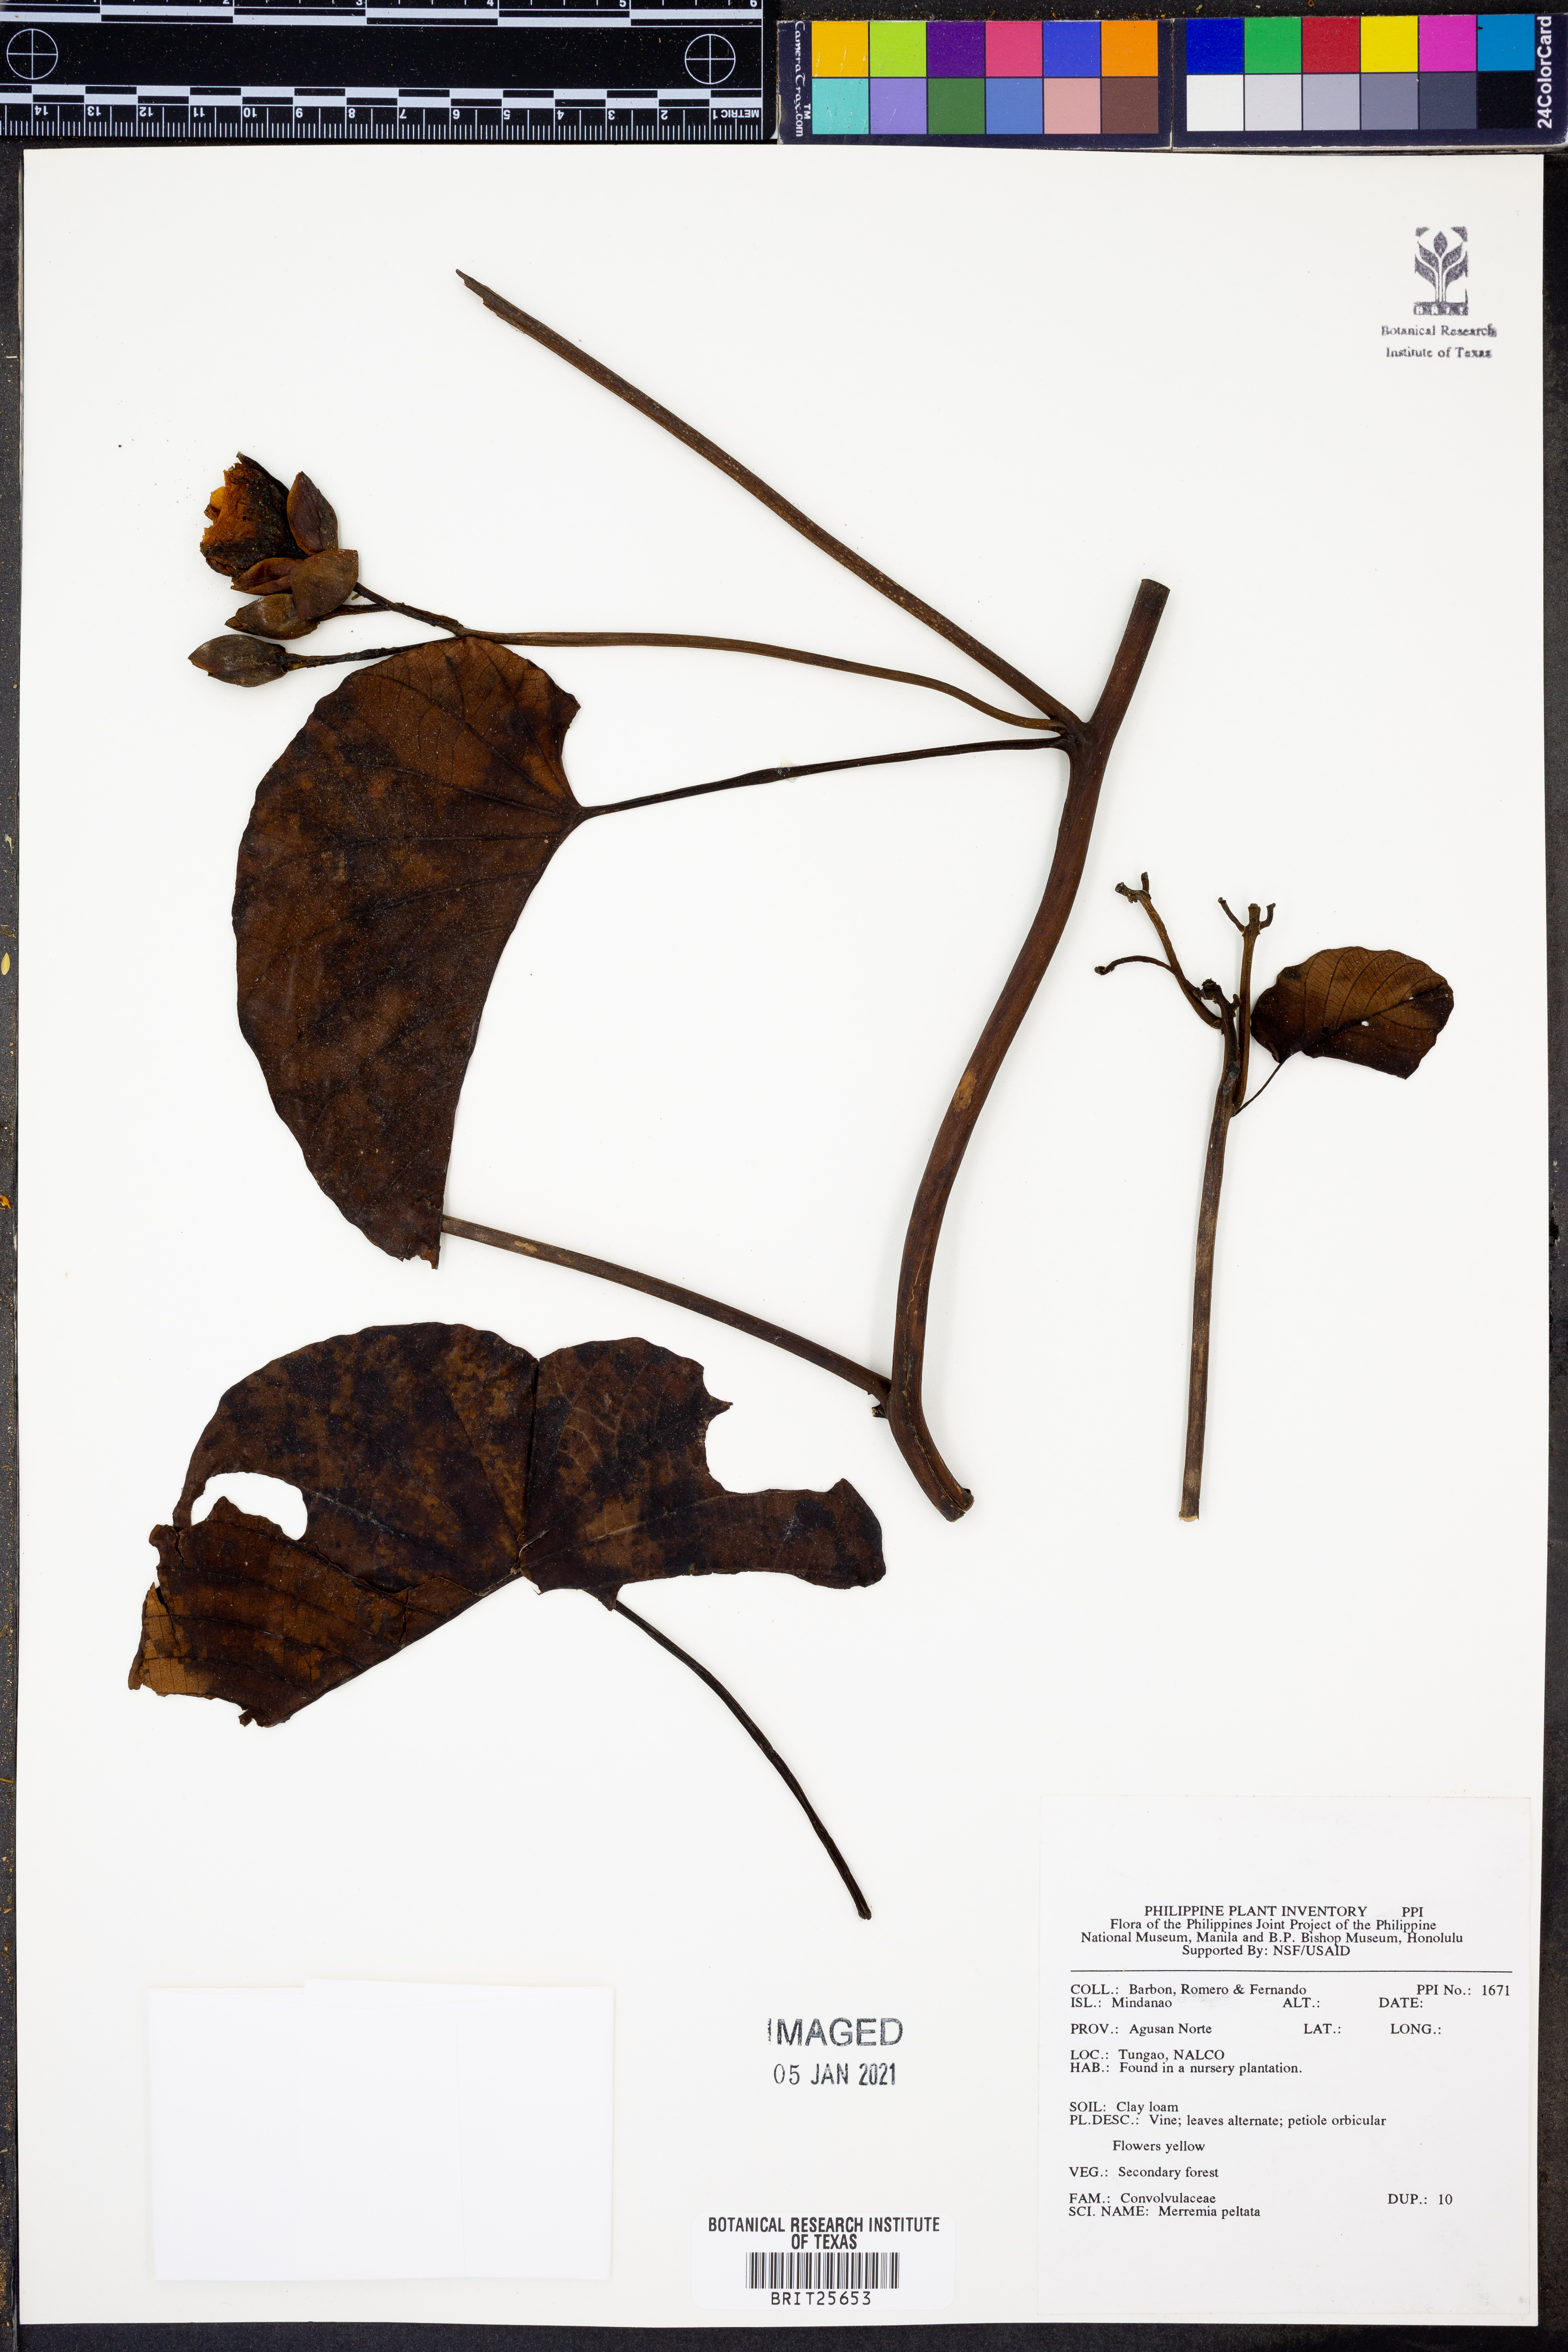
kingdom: Plantae
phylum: Tracheophyta
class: Magnoliopsida
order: Solanales
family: Convolvulaceae
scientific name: Convolvulaceae
